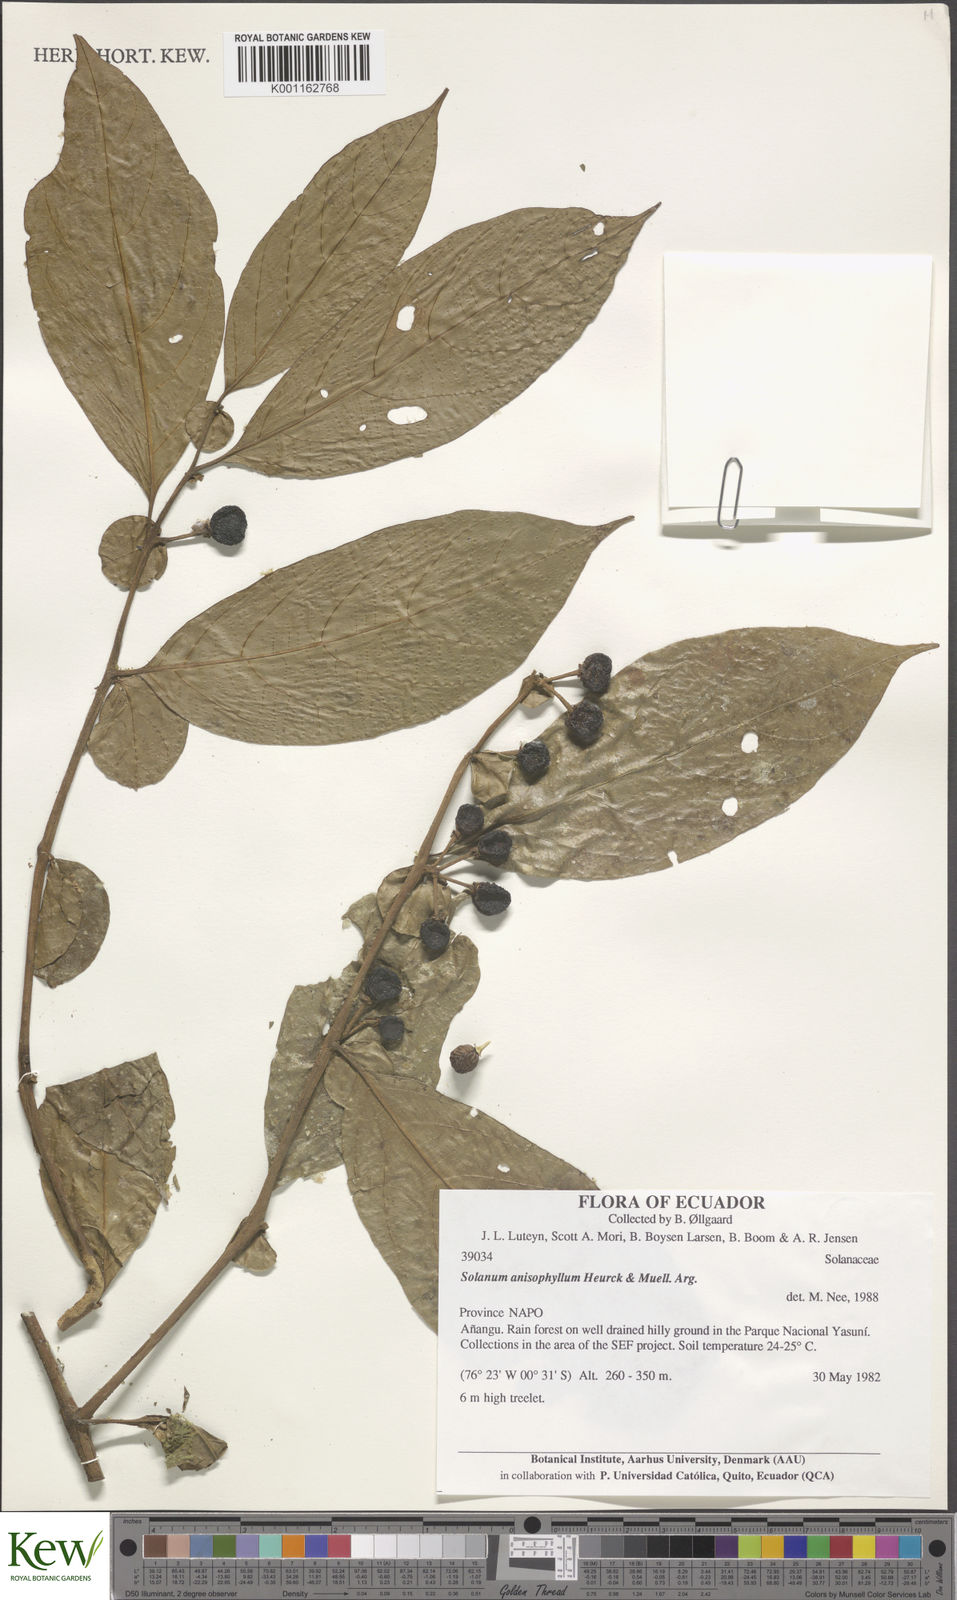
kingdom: Plantae
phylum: Tracheophyta
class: Magnoliopsida
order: Solanales
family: Solanaceae
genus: Solanum
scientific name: Solanum
